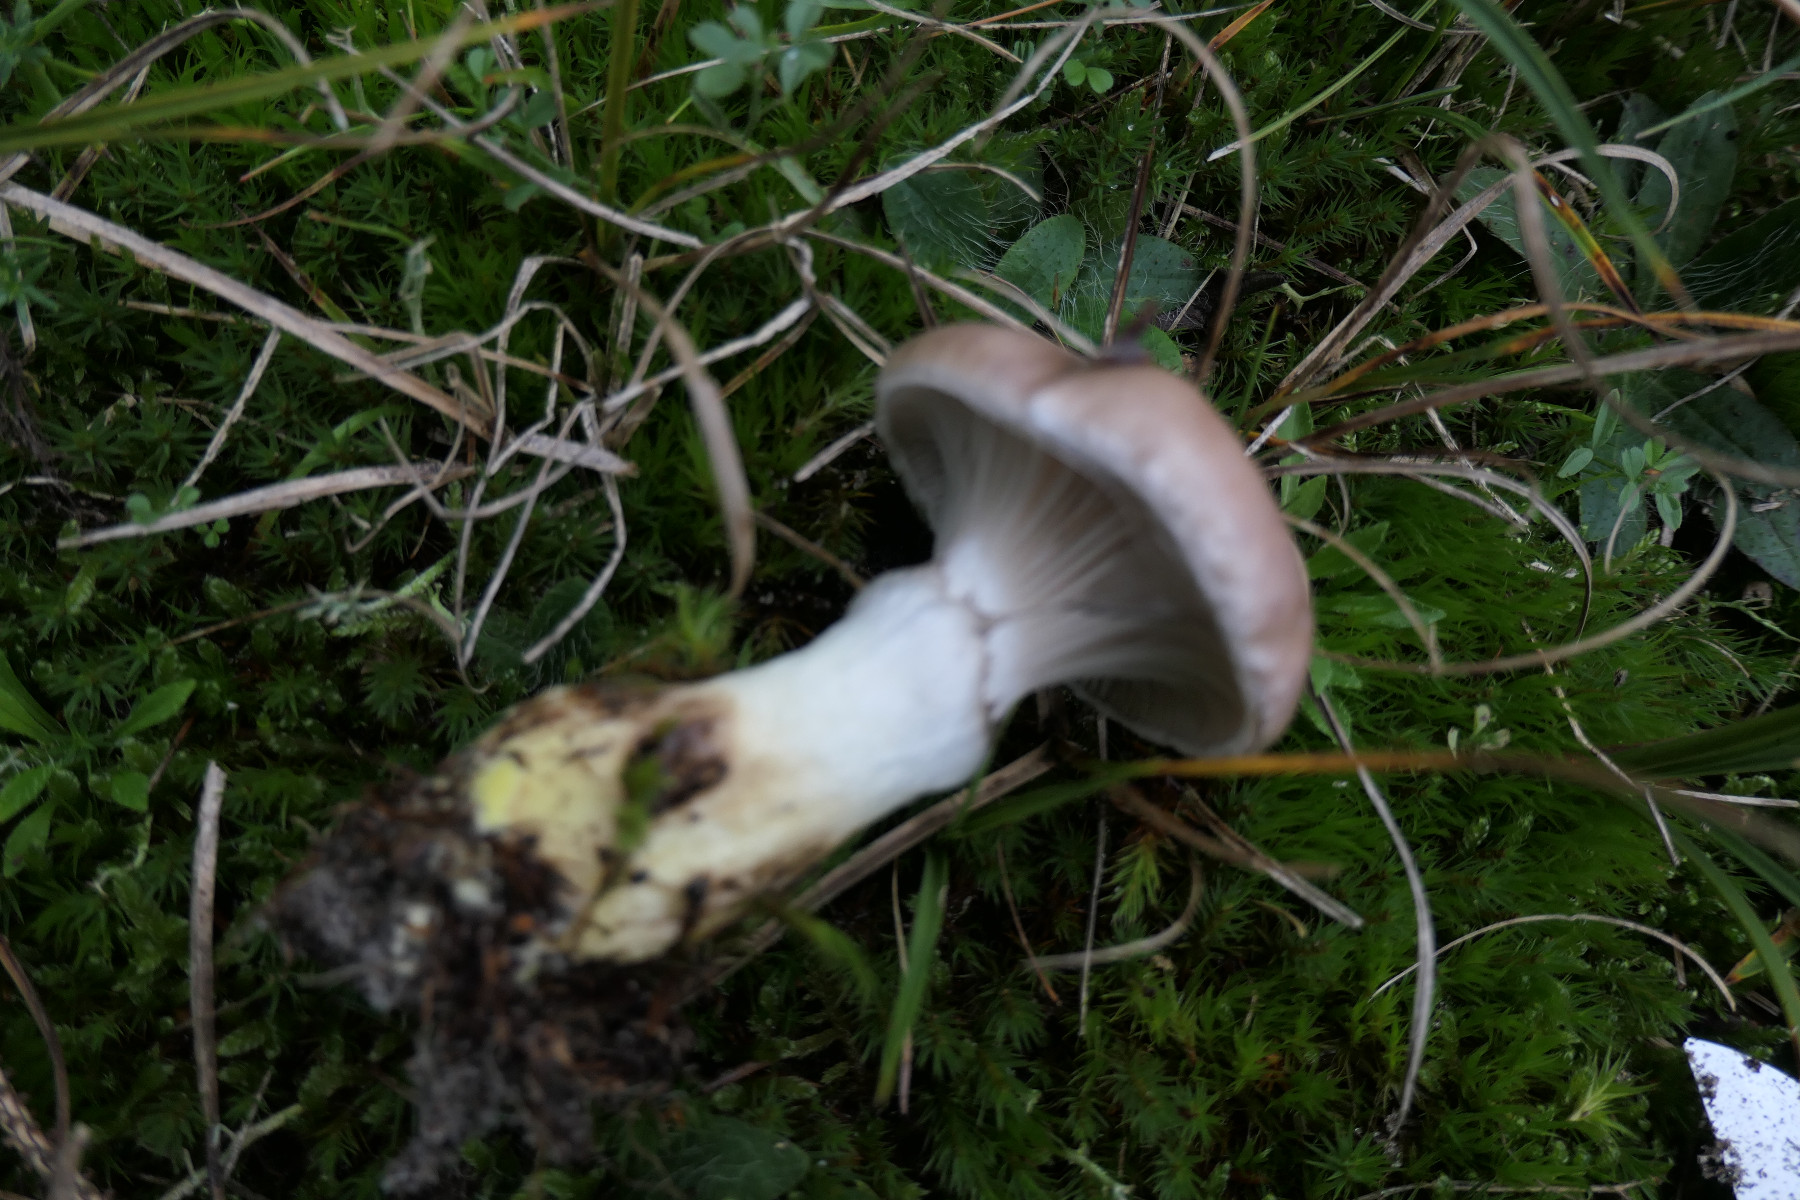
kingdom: Fungi
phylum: Basidiomycota
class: Agaricomycetes
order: Boletales
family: Gomphidiaceae
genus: Gomphidius
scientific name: Gomphidius glutinosus
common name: grå slimslør
